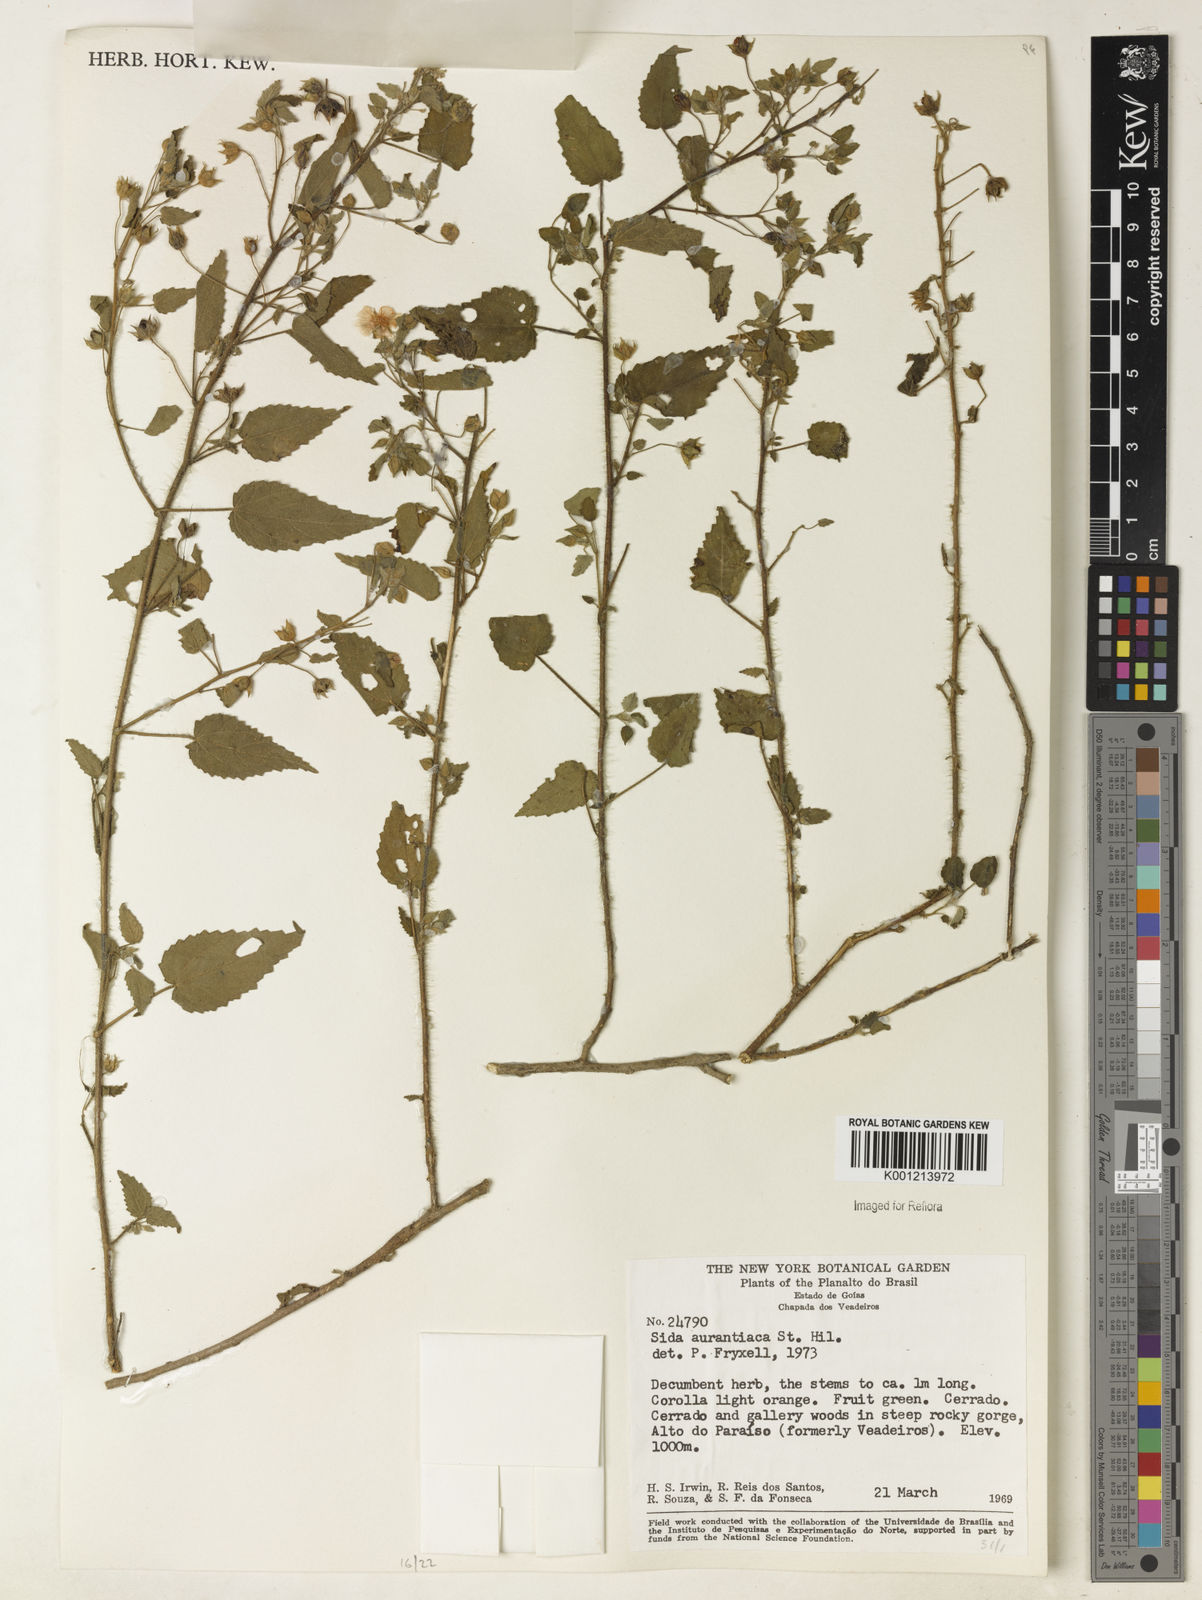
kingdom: Plantae
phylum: Tracheophyta
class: Magnoliopsida
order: Malvales
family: Malvaceae
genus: Sida
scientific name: Sida aurantiaca
